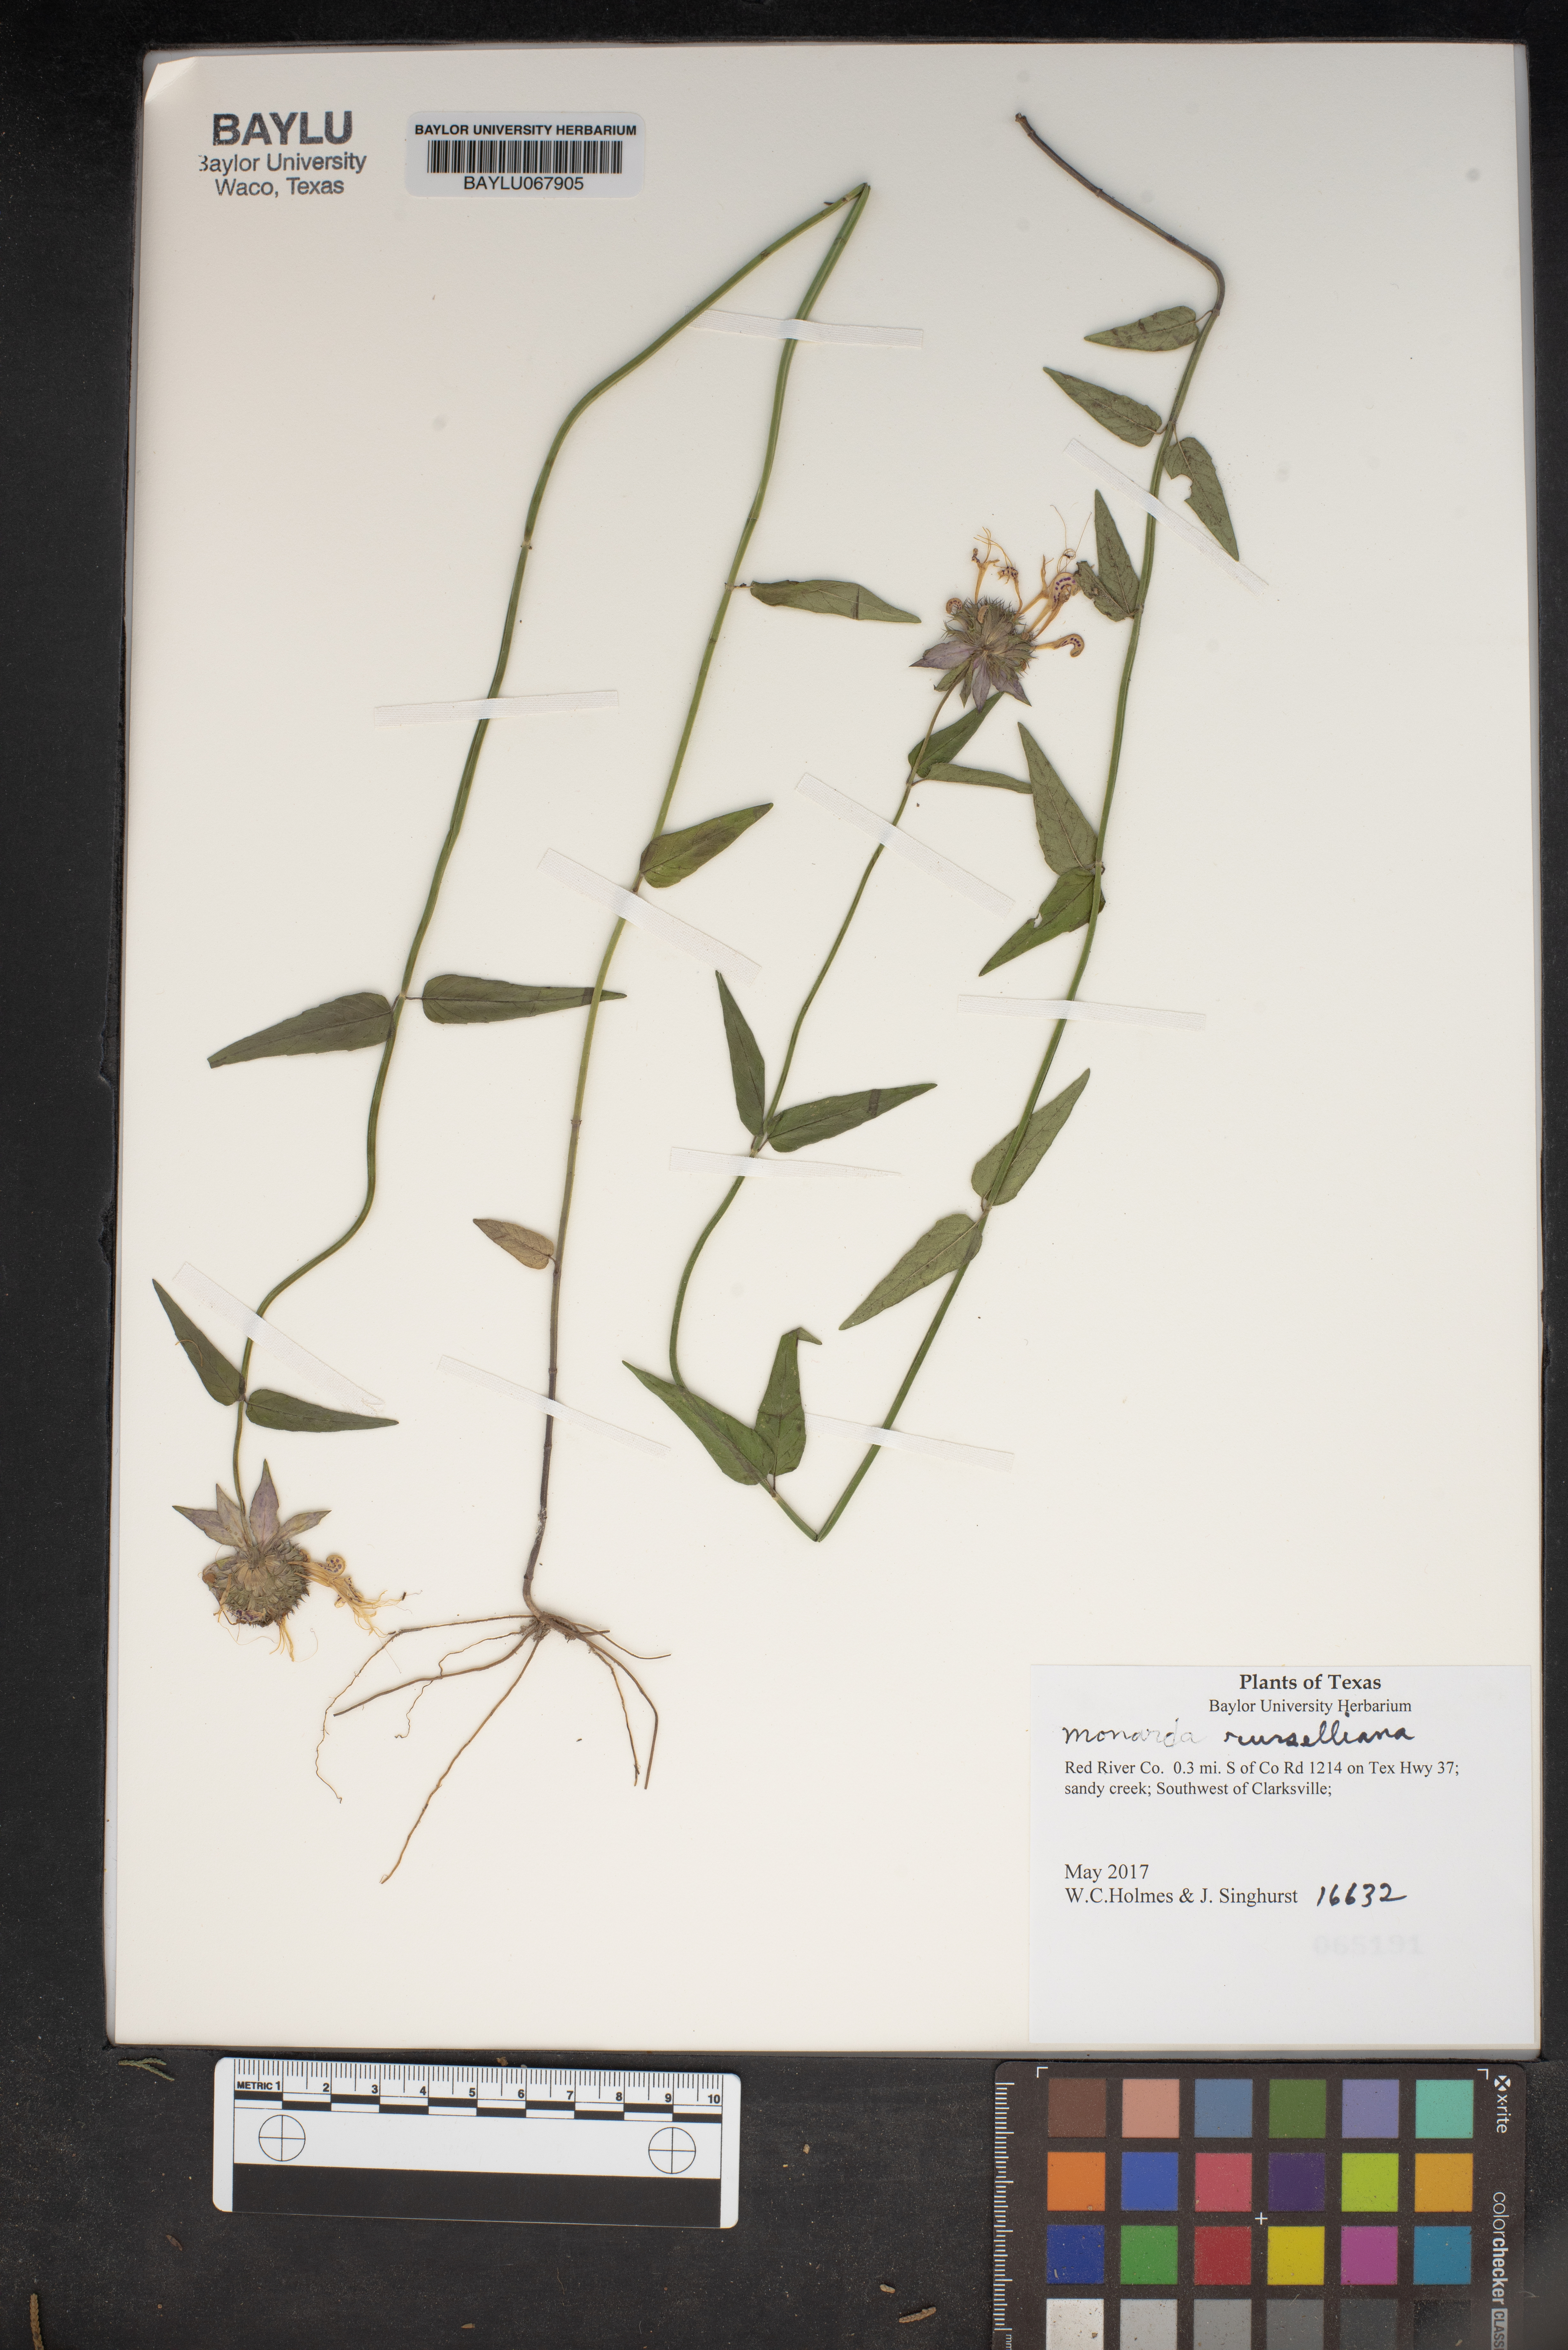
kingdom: Plantae
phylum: Tracheophyta
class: Magnoliopsida
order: Lamiales
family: Lamiaceae
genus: Monarda
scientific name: Monarda russeliana
